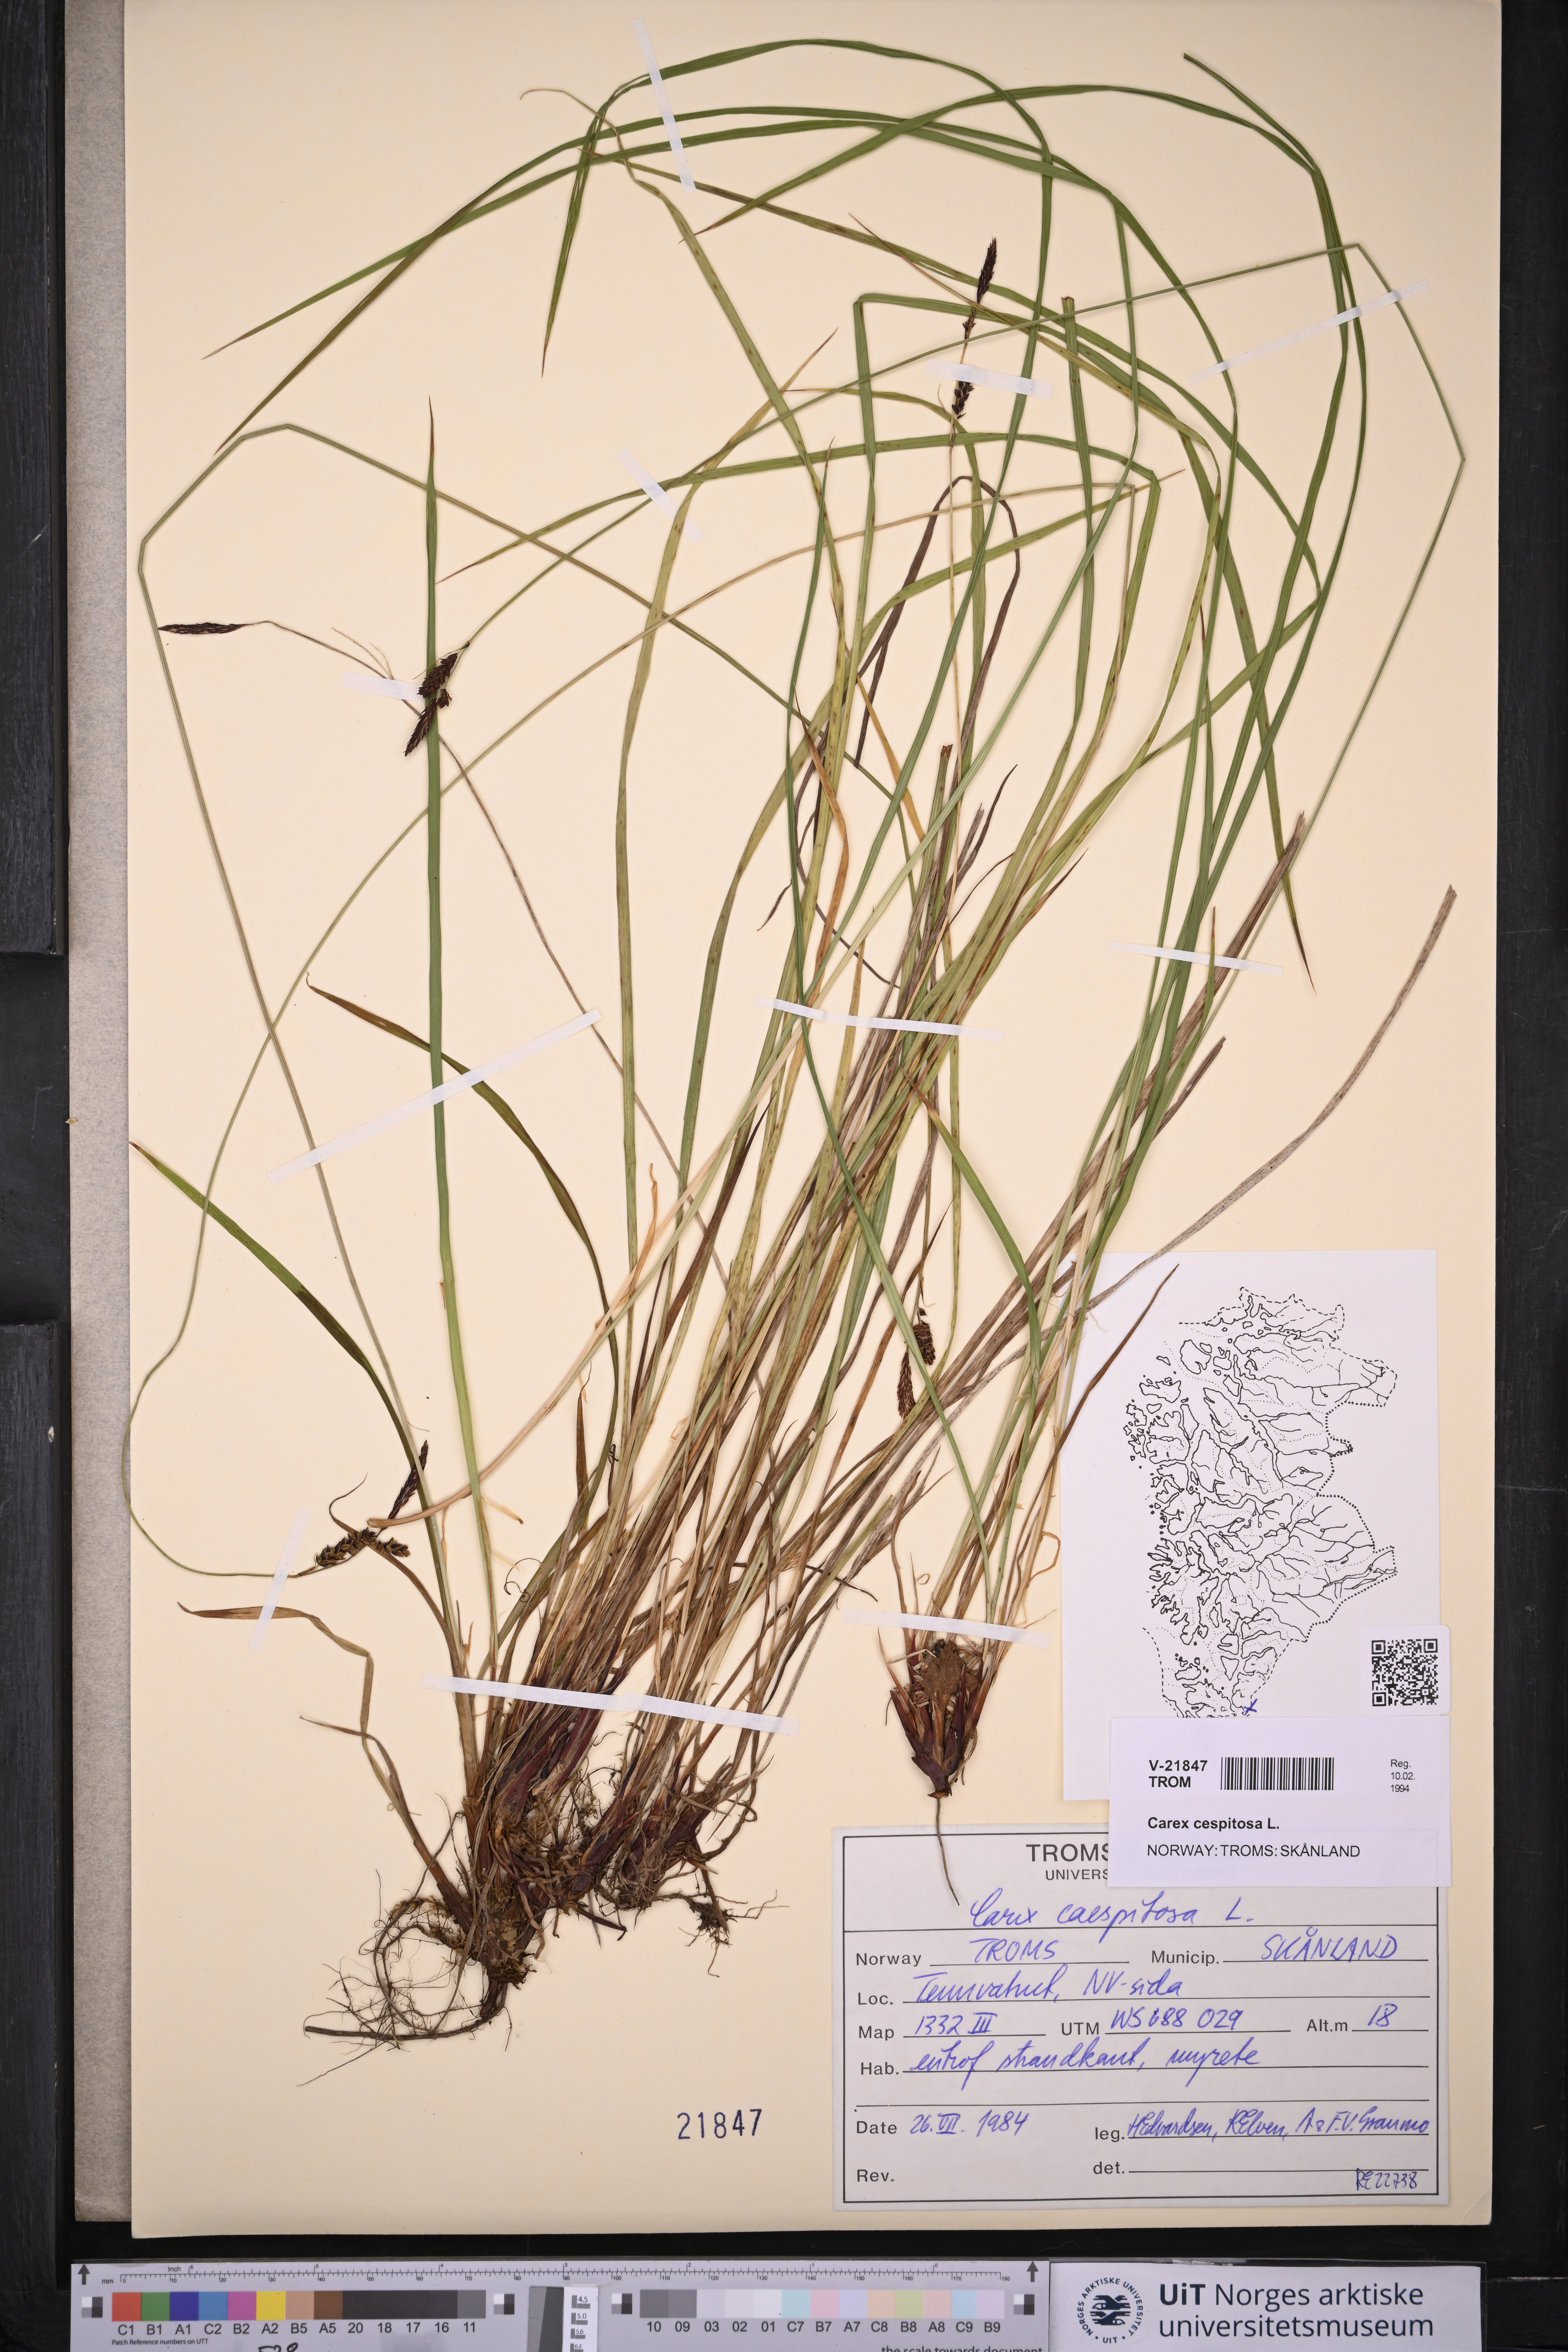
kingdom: Plantae
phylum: Tracheophyta
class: Liliopsida
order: Poales
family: Cyperaceae
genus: Carex
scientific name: Carex cespitosa
